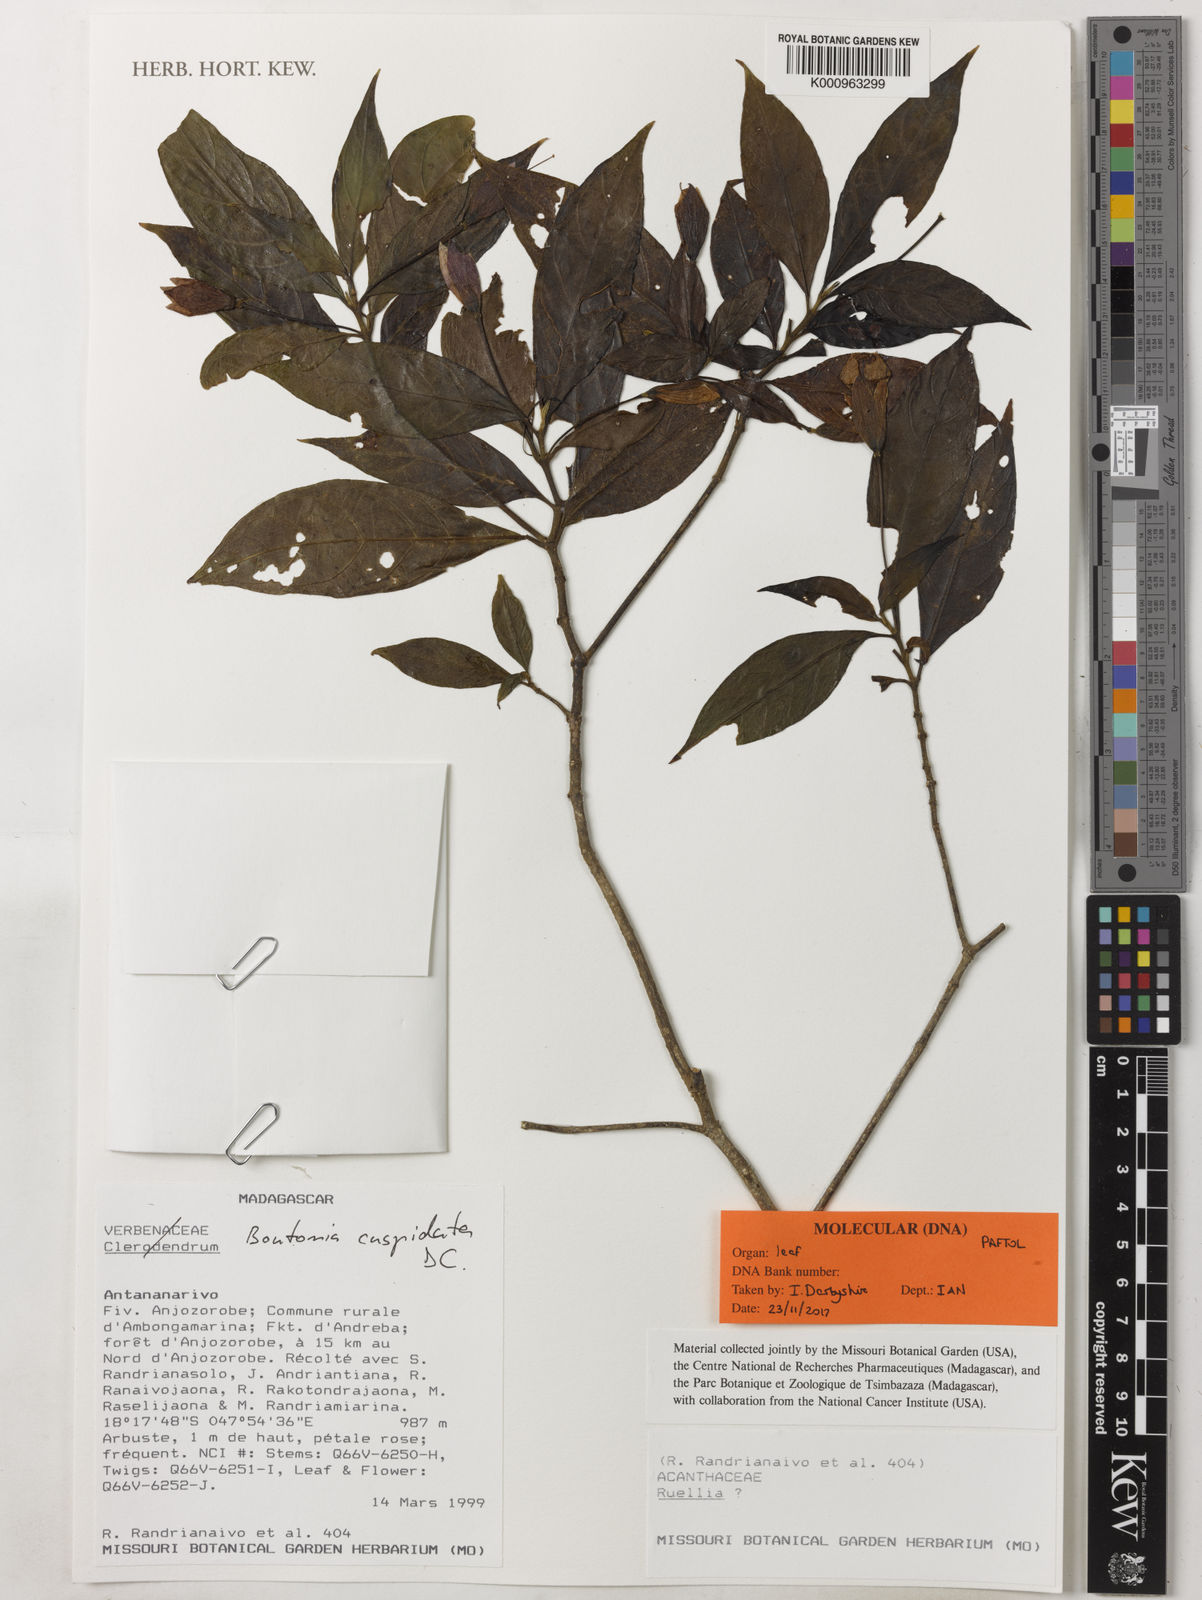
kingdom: Plantae
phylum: Tracheophyta
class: Magnoliopsida
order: Lamiales
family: Acanthaceae
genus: Boutonia
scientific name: Boutonia cuspidata
